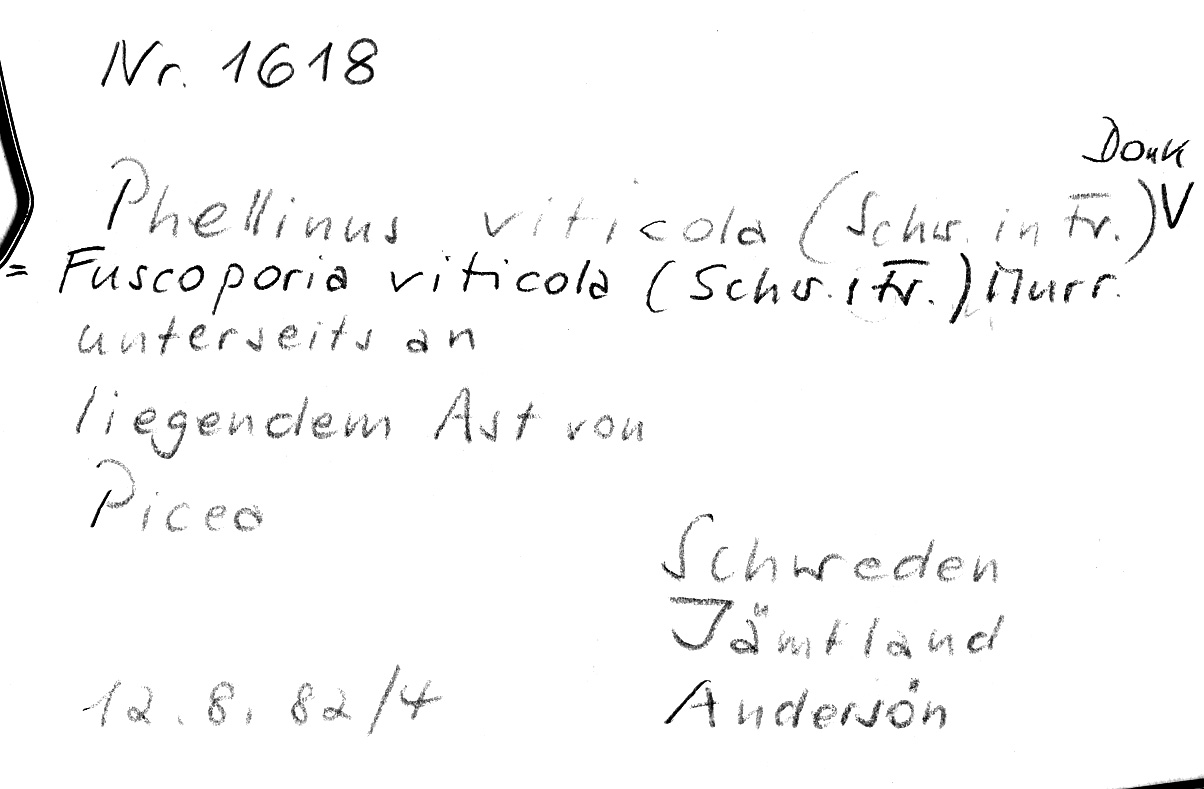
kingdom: Fungi
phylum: Basidiomycota
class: Agaricomycetes
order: Hymenochaetales
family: Hymenochaetaceae
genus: Phellinus
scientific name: Phellinus viticola
